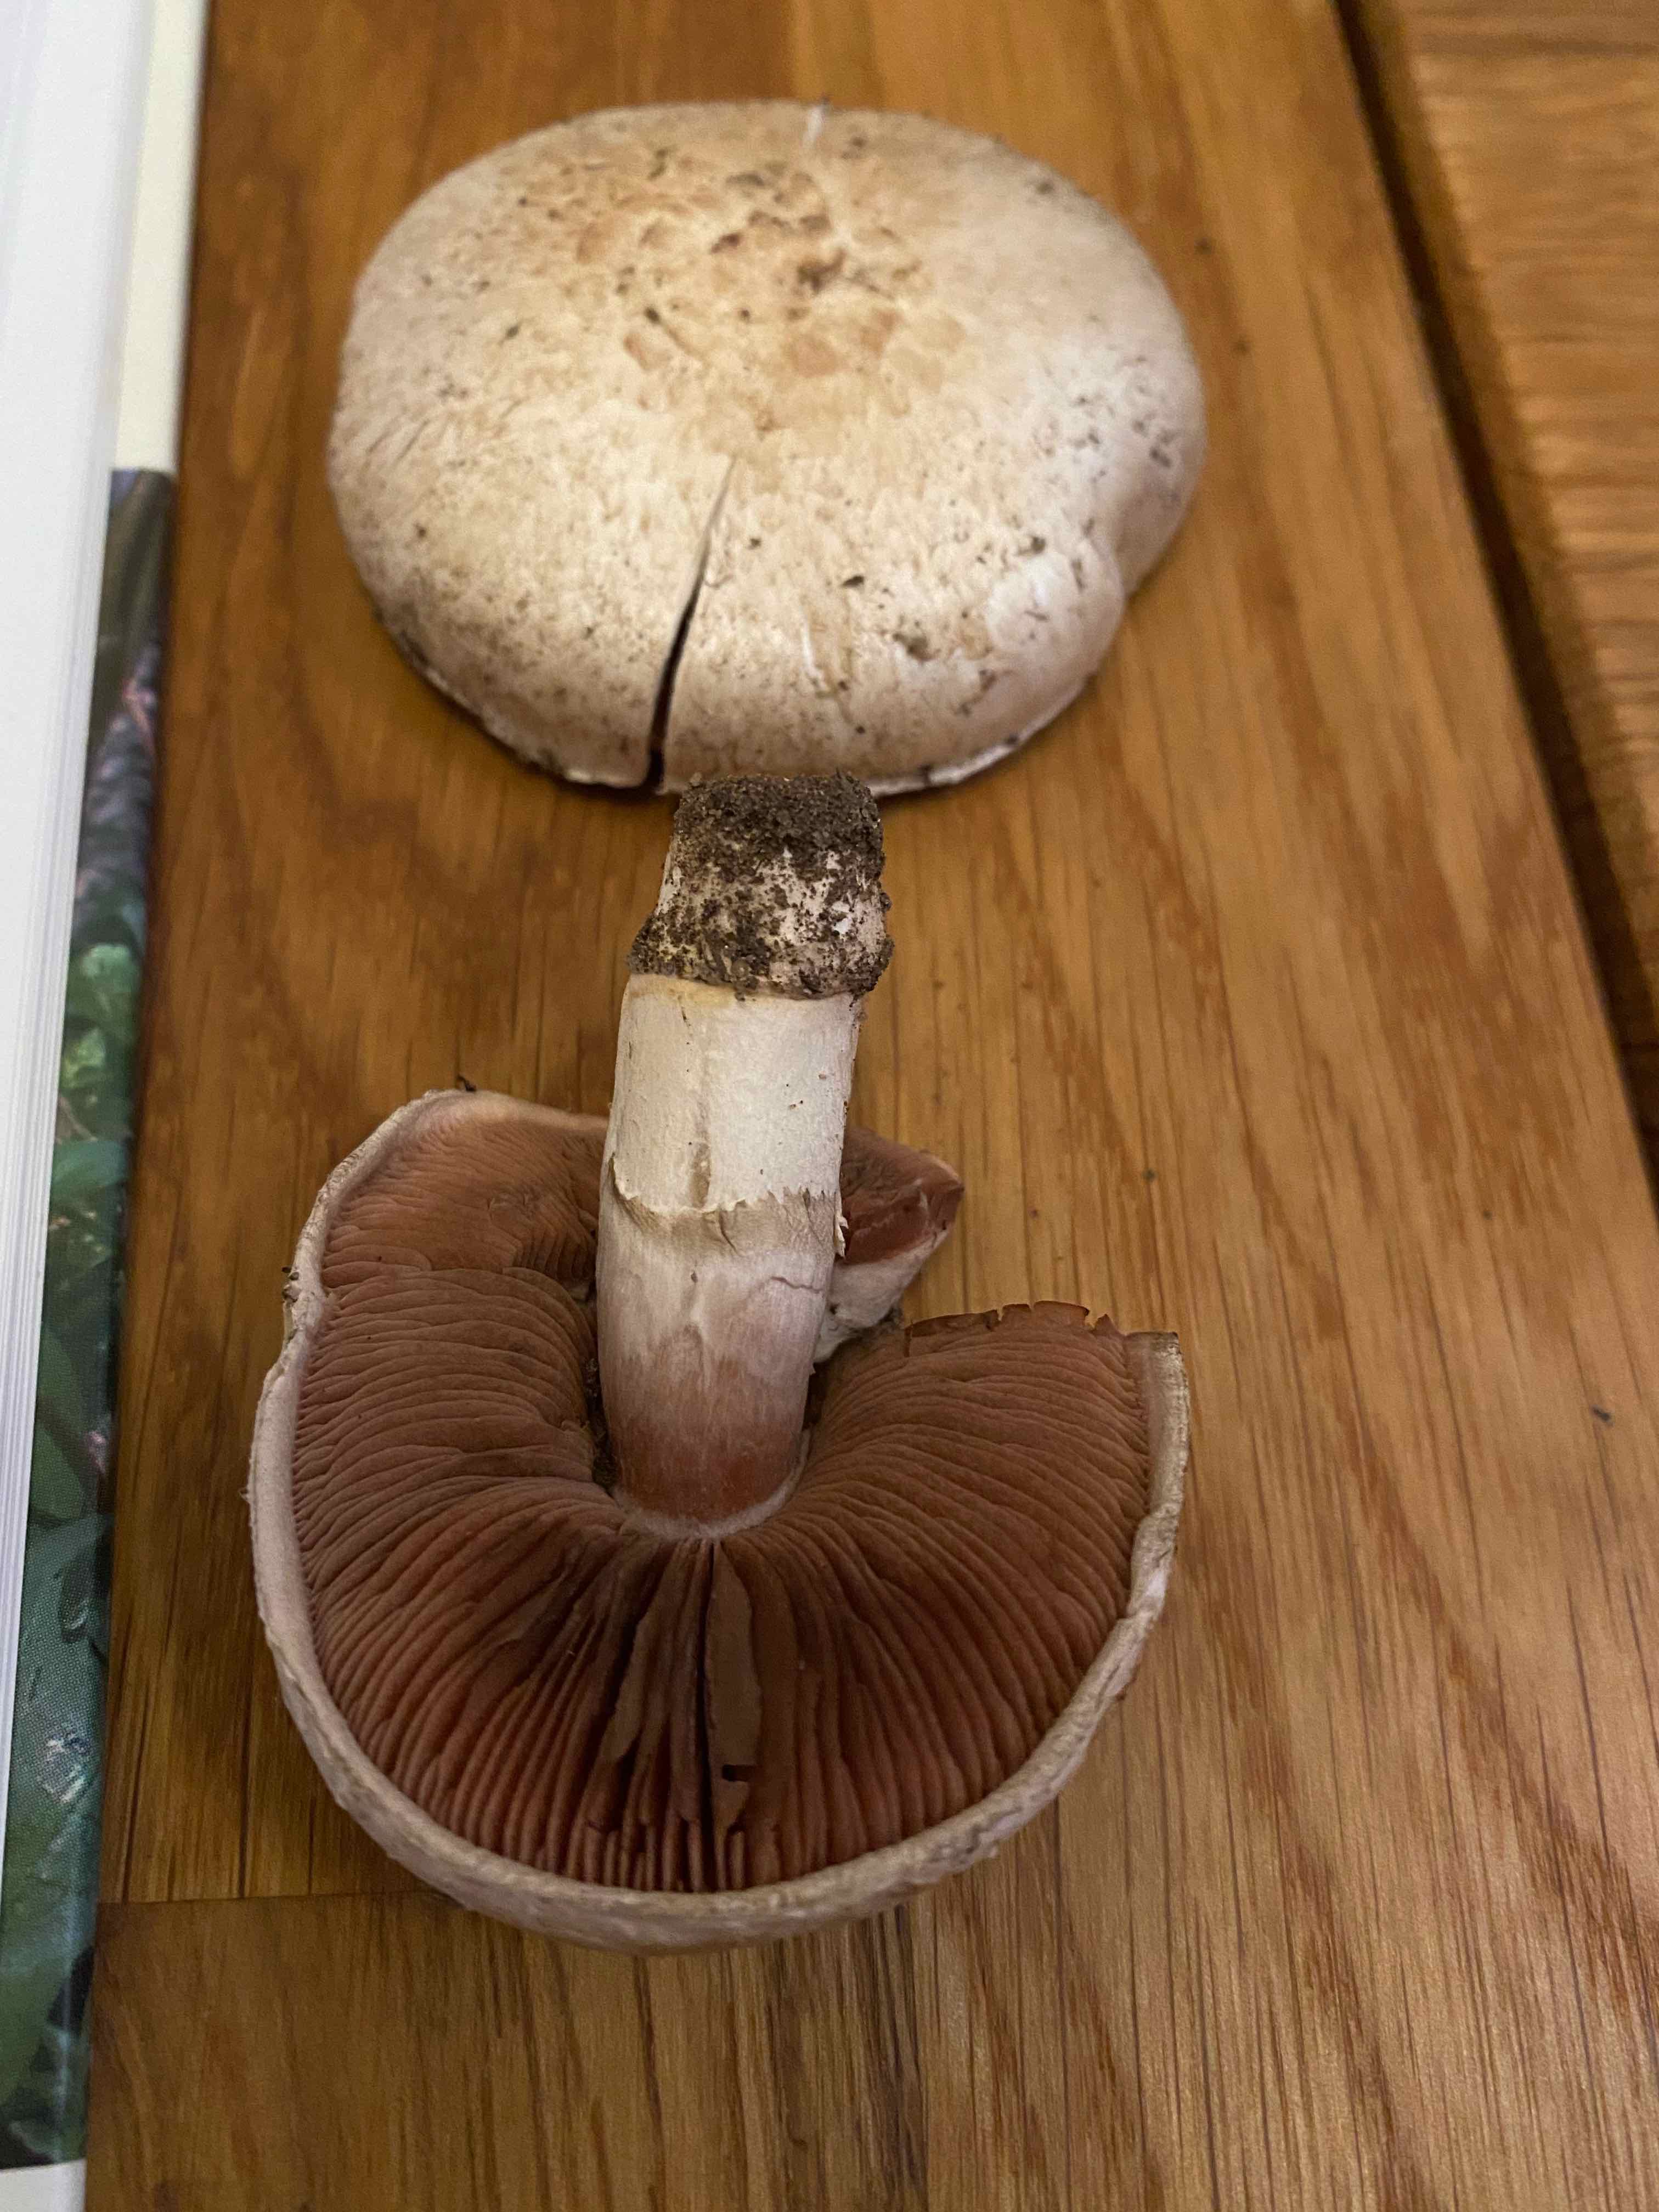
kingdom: Fungi
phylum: Basidiomycota
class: Agaricomycetes
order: Agaricales
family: Agaricaceae
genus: Agaricus
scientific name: Agaricus
